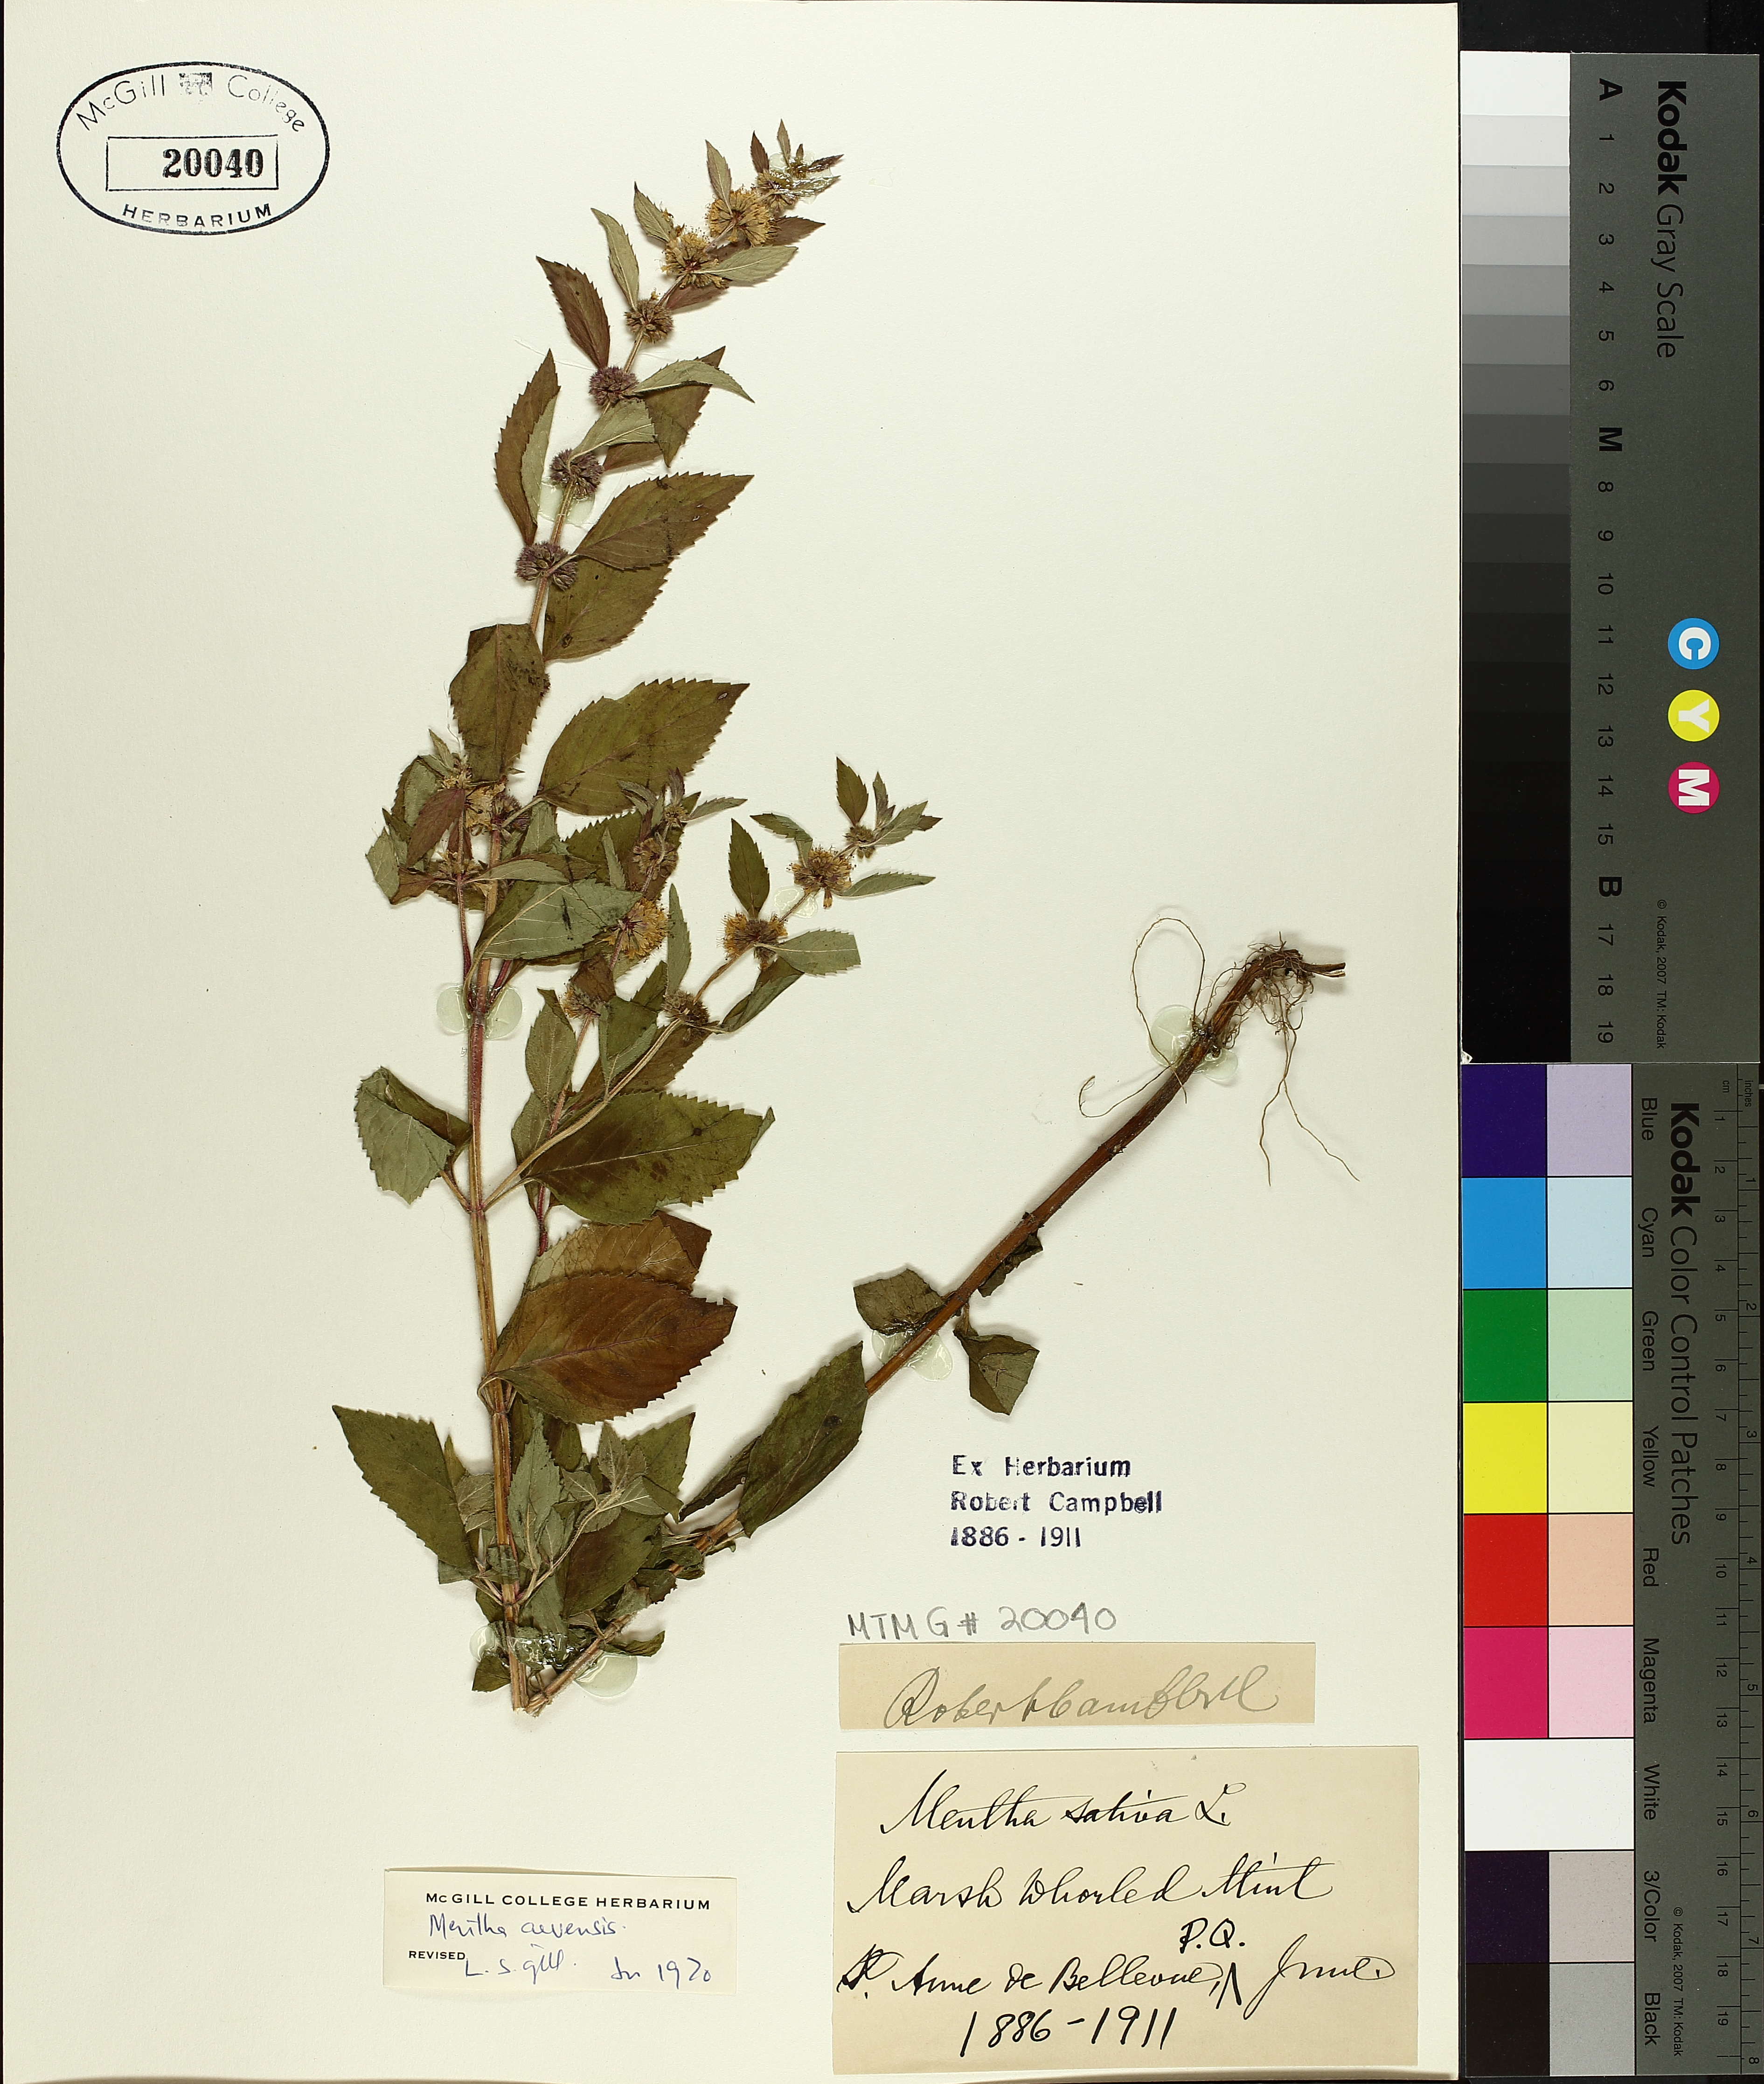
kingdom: Plantae
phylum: Tracheophyta
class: Magnoliopsida
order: Lamiales
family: Lamiaceae
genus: Mentha
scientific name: Mentha arvensis
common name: Corn mint
